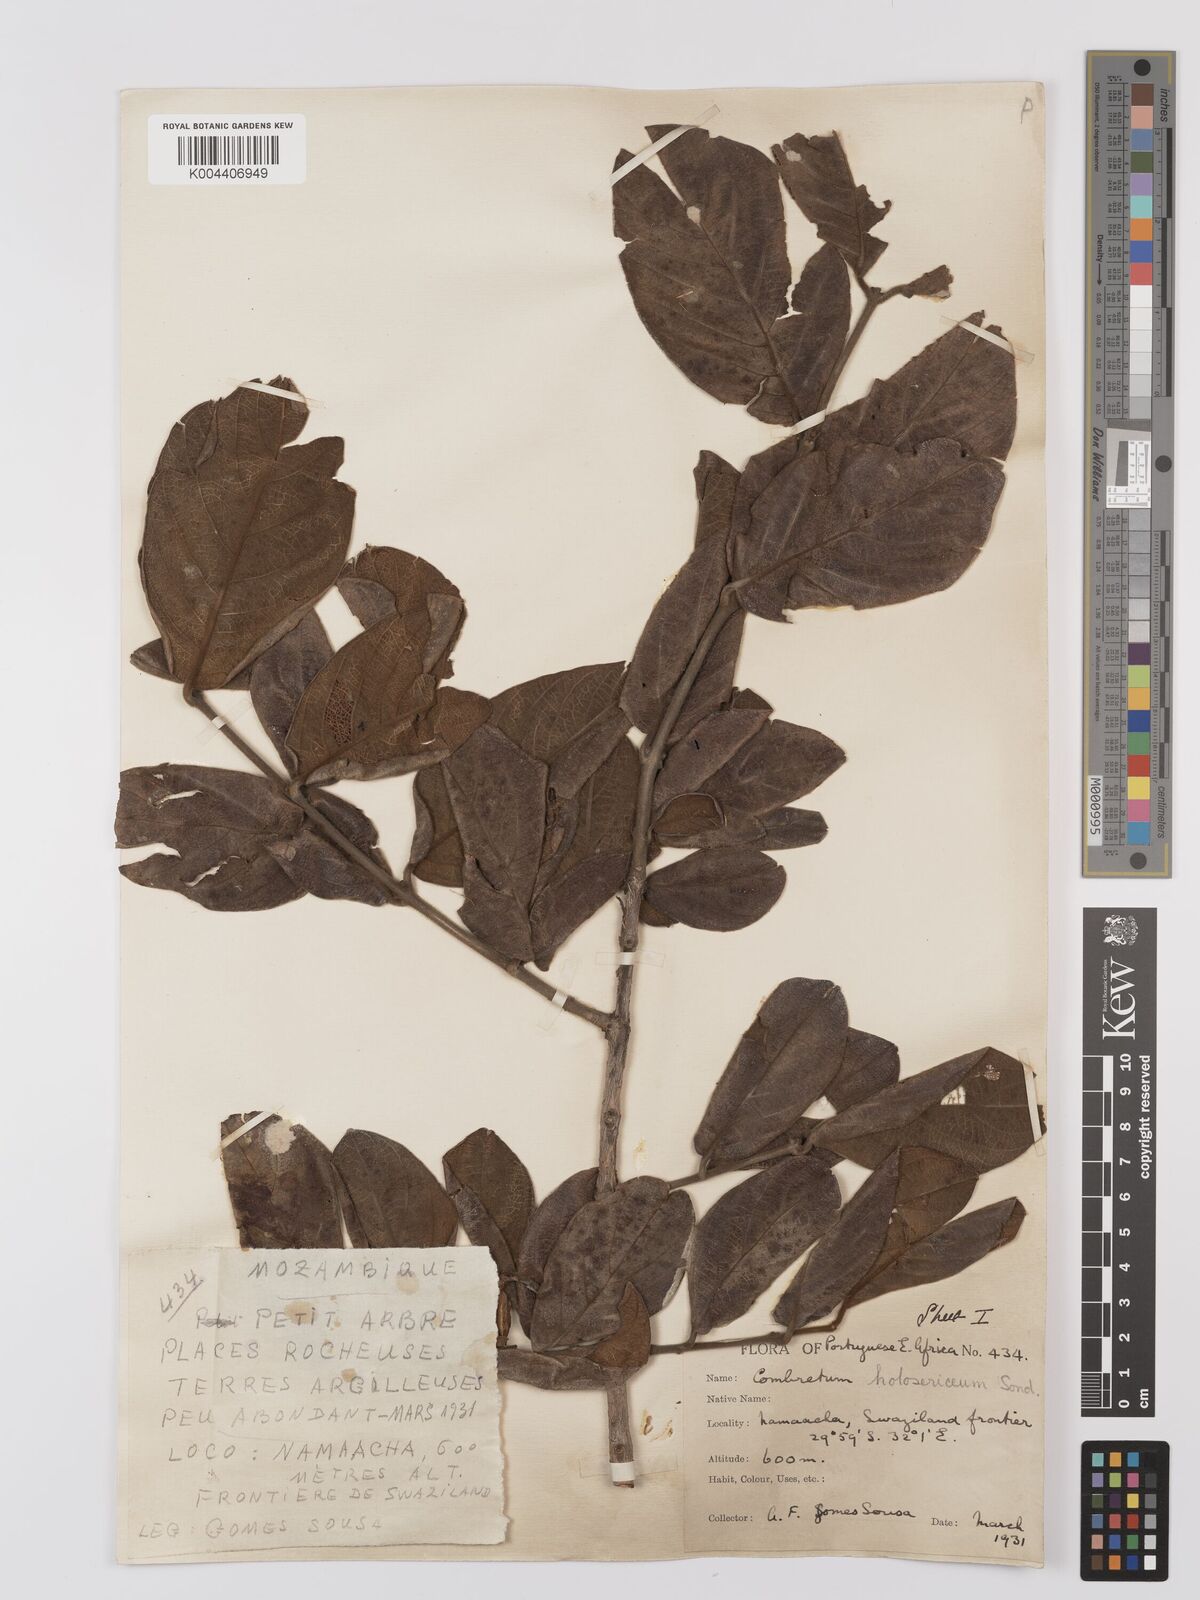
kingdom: Plantae
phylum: Tracheophyta
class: Magnoliopsida
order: Myrtales
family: Combretaceae
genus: Combretum
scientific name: Combretum
